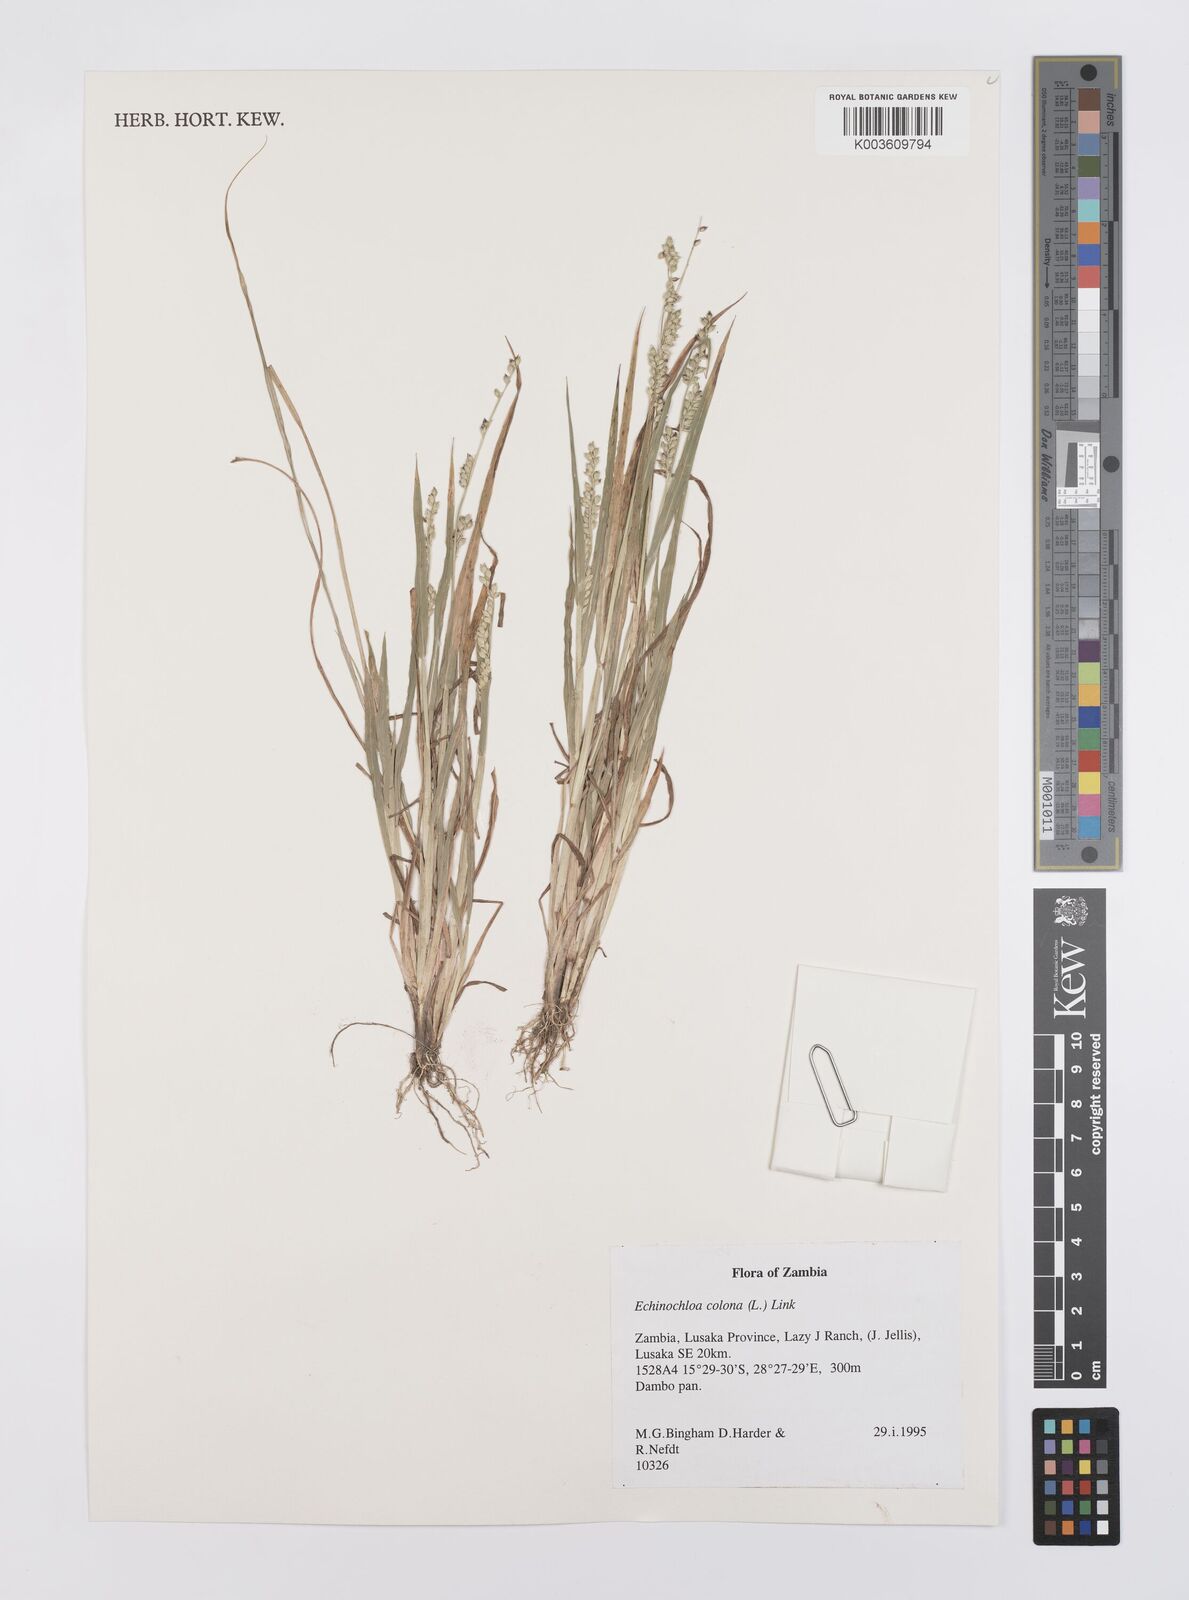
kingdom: Plantae
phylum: Tracheophyta
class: Liliopsida
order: Poales
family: Poaceae
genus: Echinochloa
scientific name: Echinochloa colonum
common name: Jungle rice
